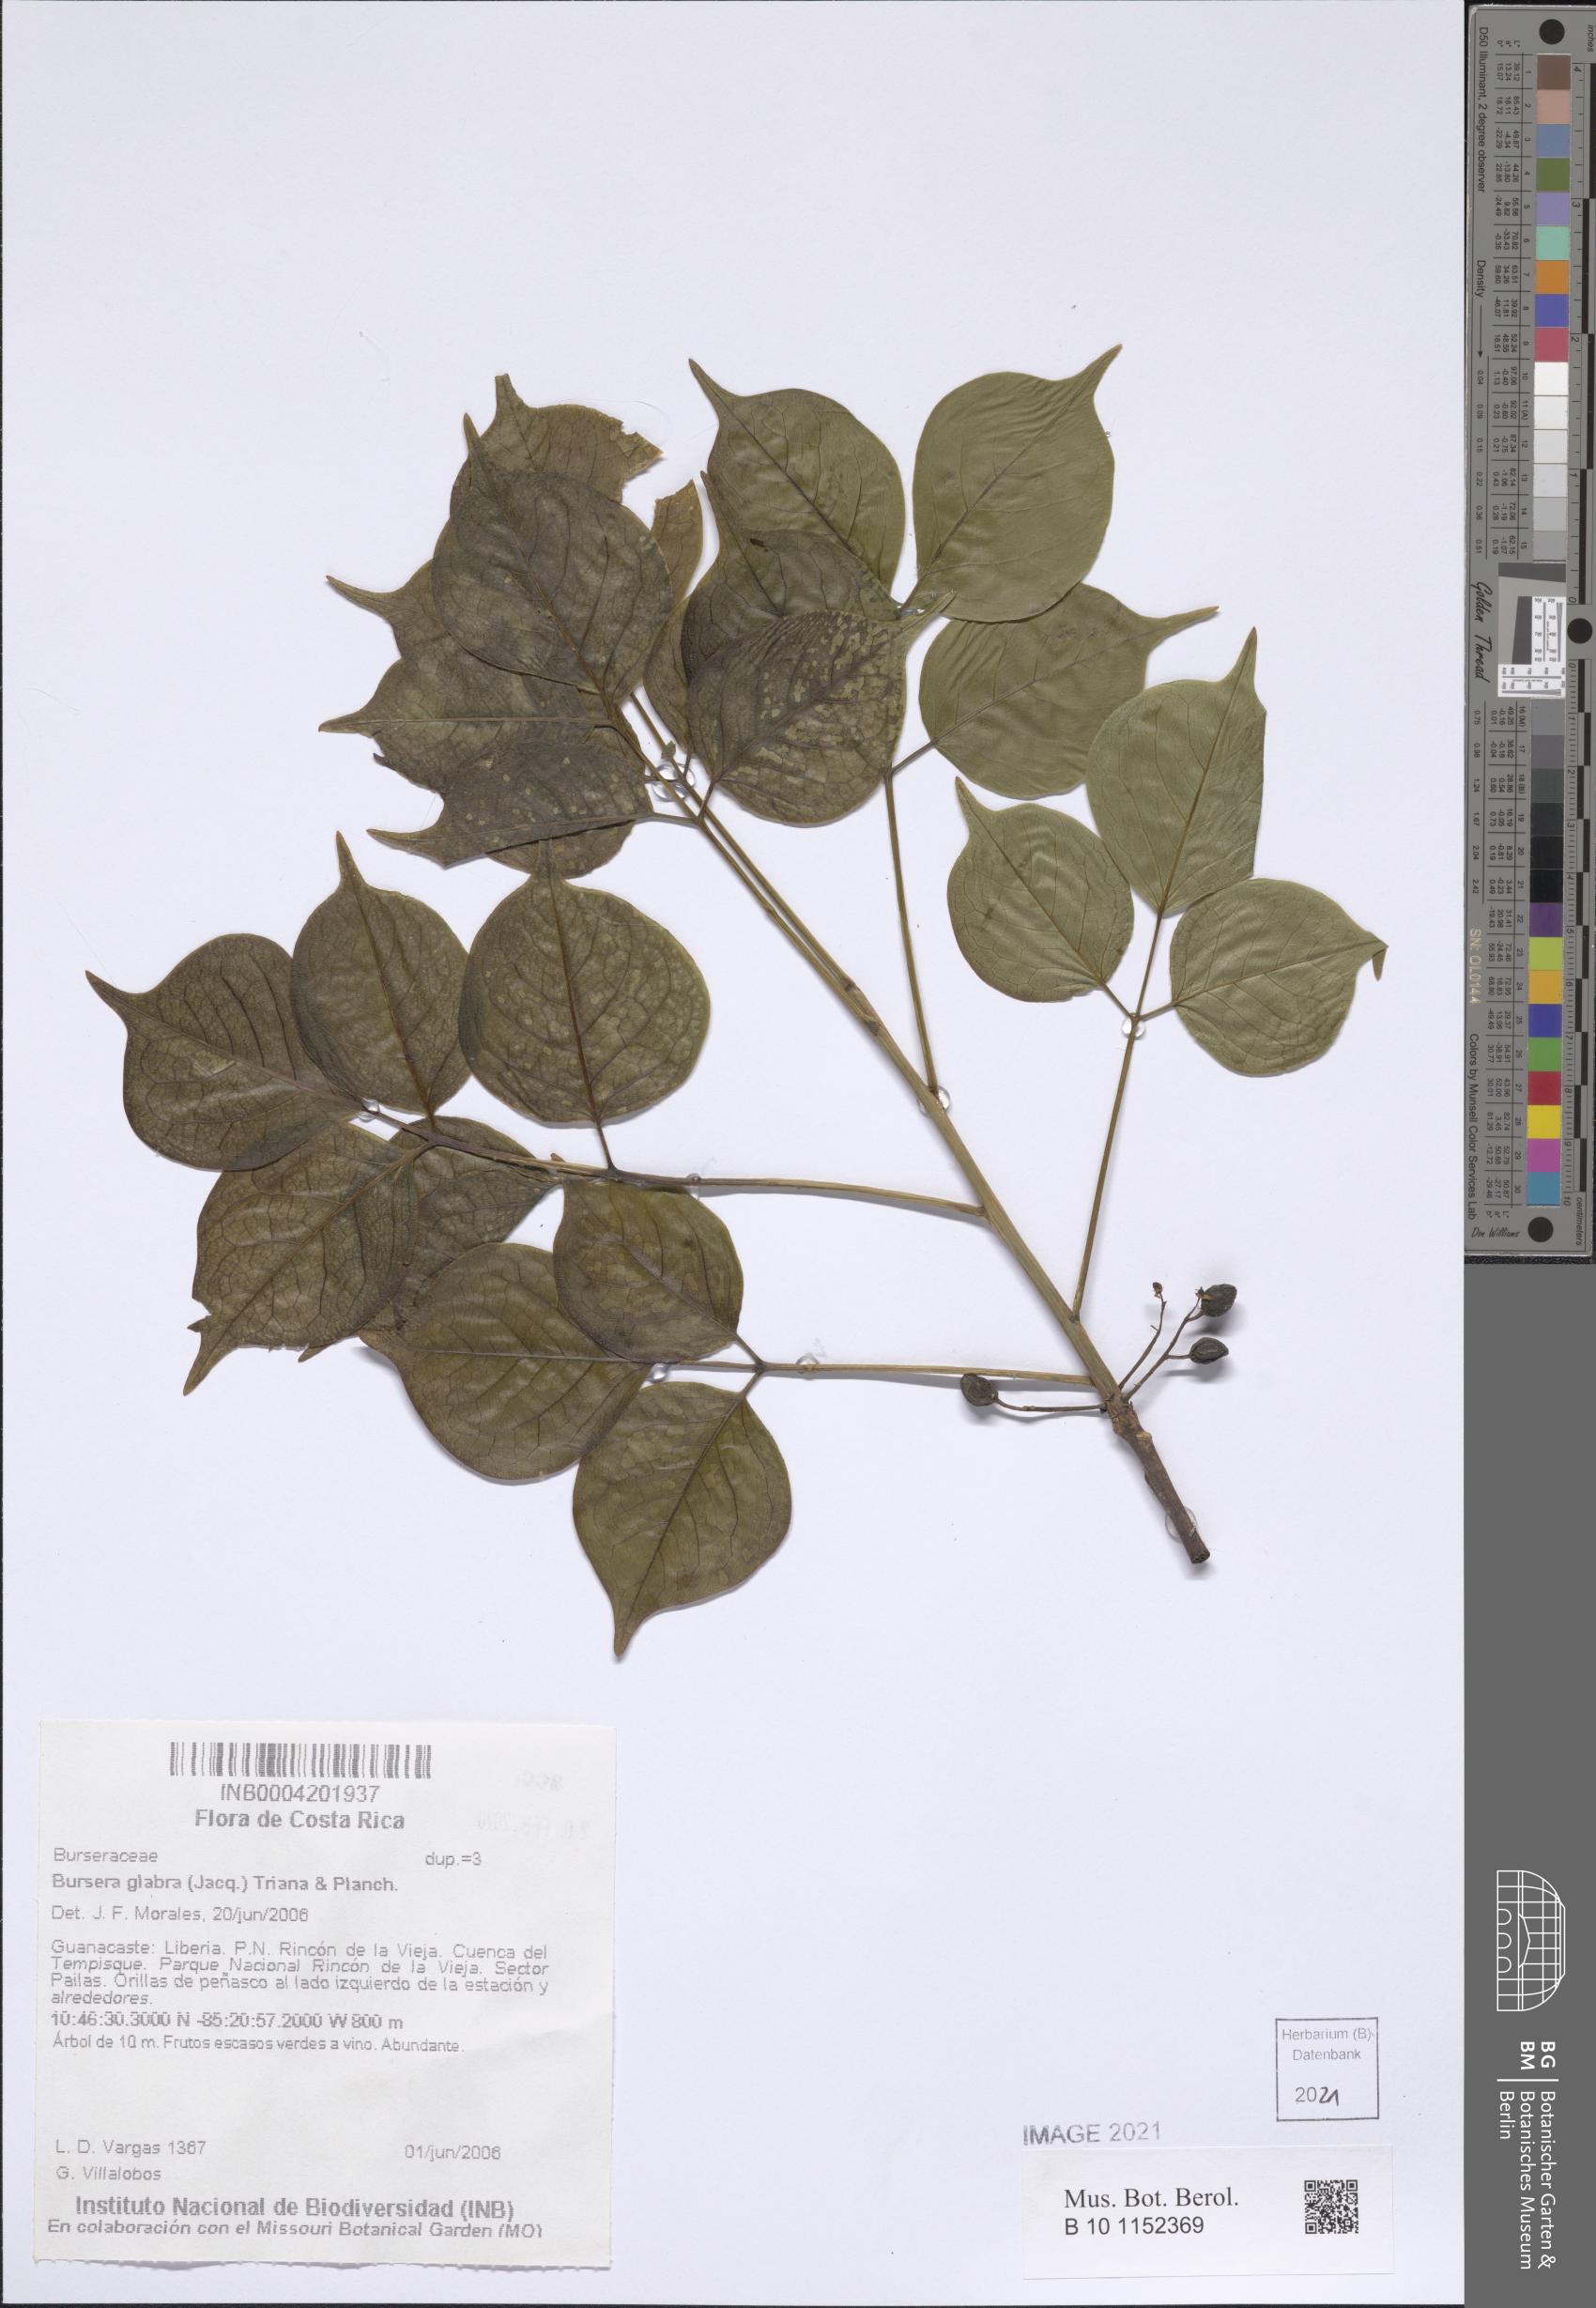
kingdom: Plantae
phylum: Tracheophyta
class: Magnoliopsida
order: Sapindales
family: Burseraceae
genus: Bursera
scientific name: Bursera ovalifolia
